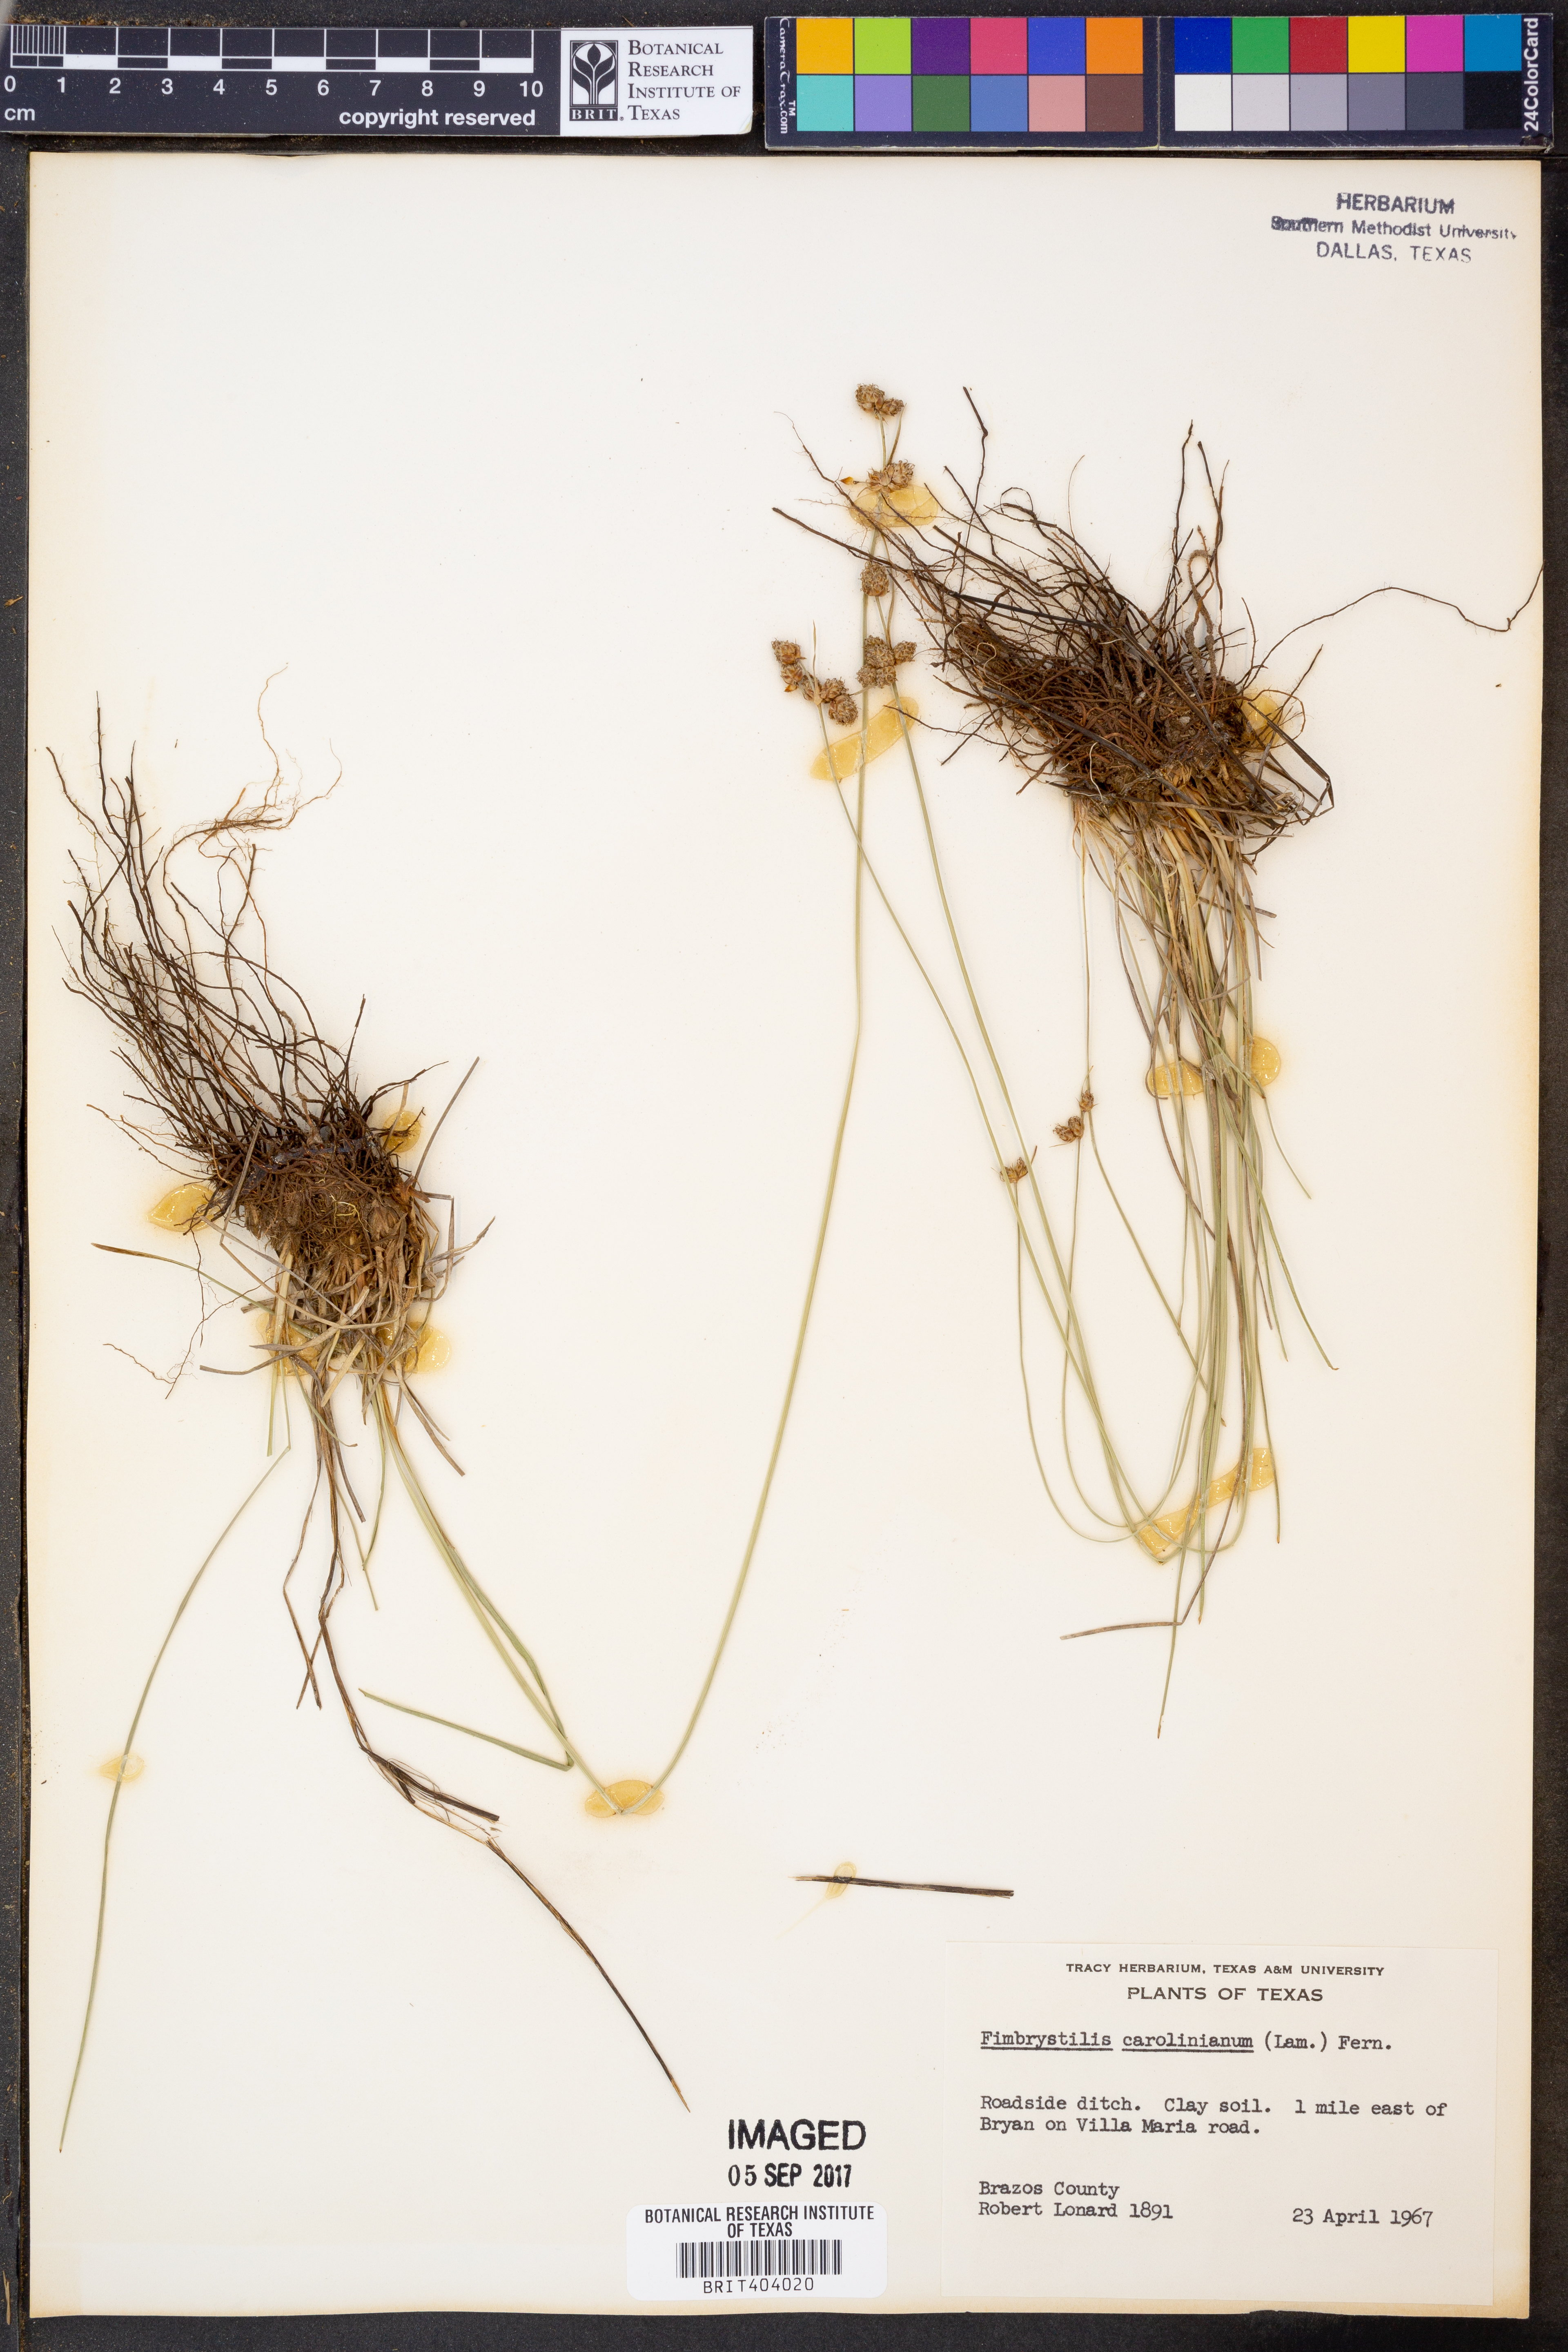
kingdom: Plantae
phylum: Tracheophyta
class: Liliopsida
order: Poales
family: Cyperaceae
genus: Fimbristylis
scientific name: Fimbristylis caroliniana
